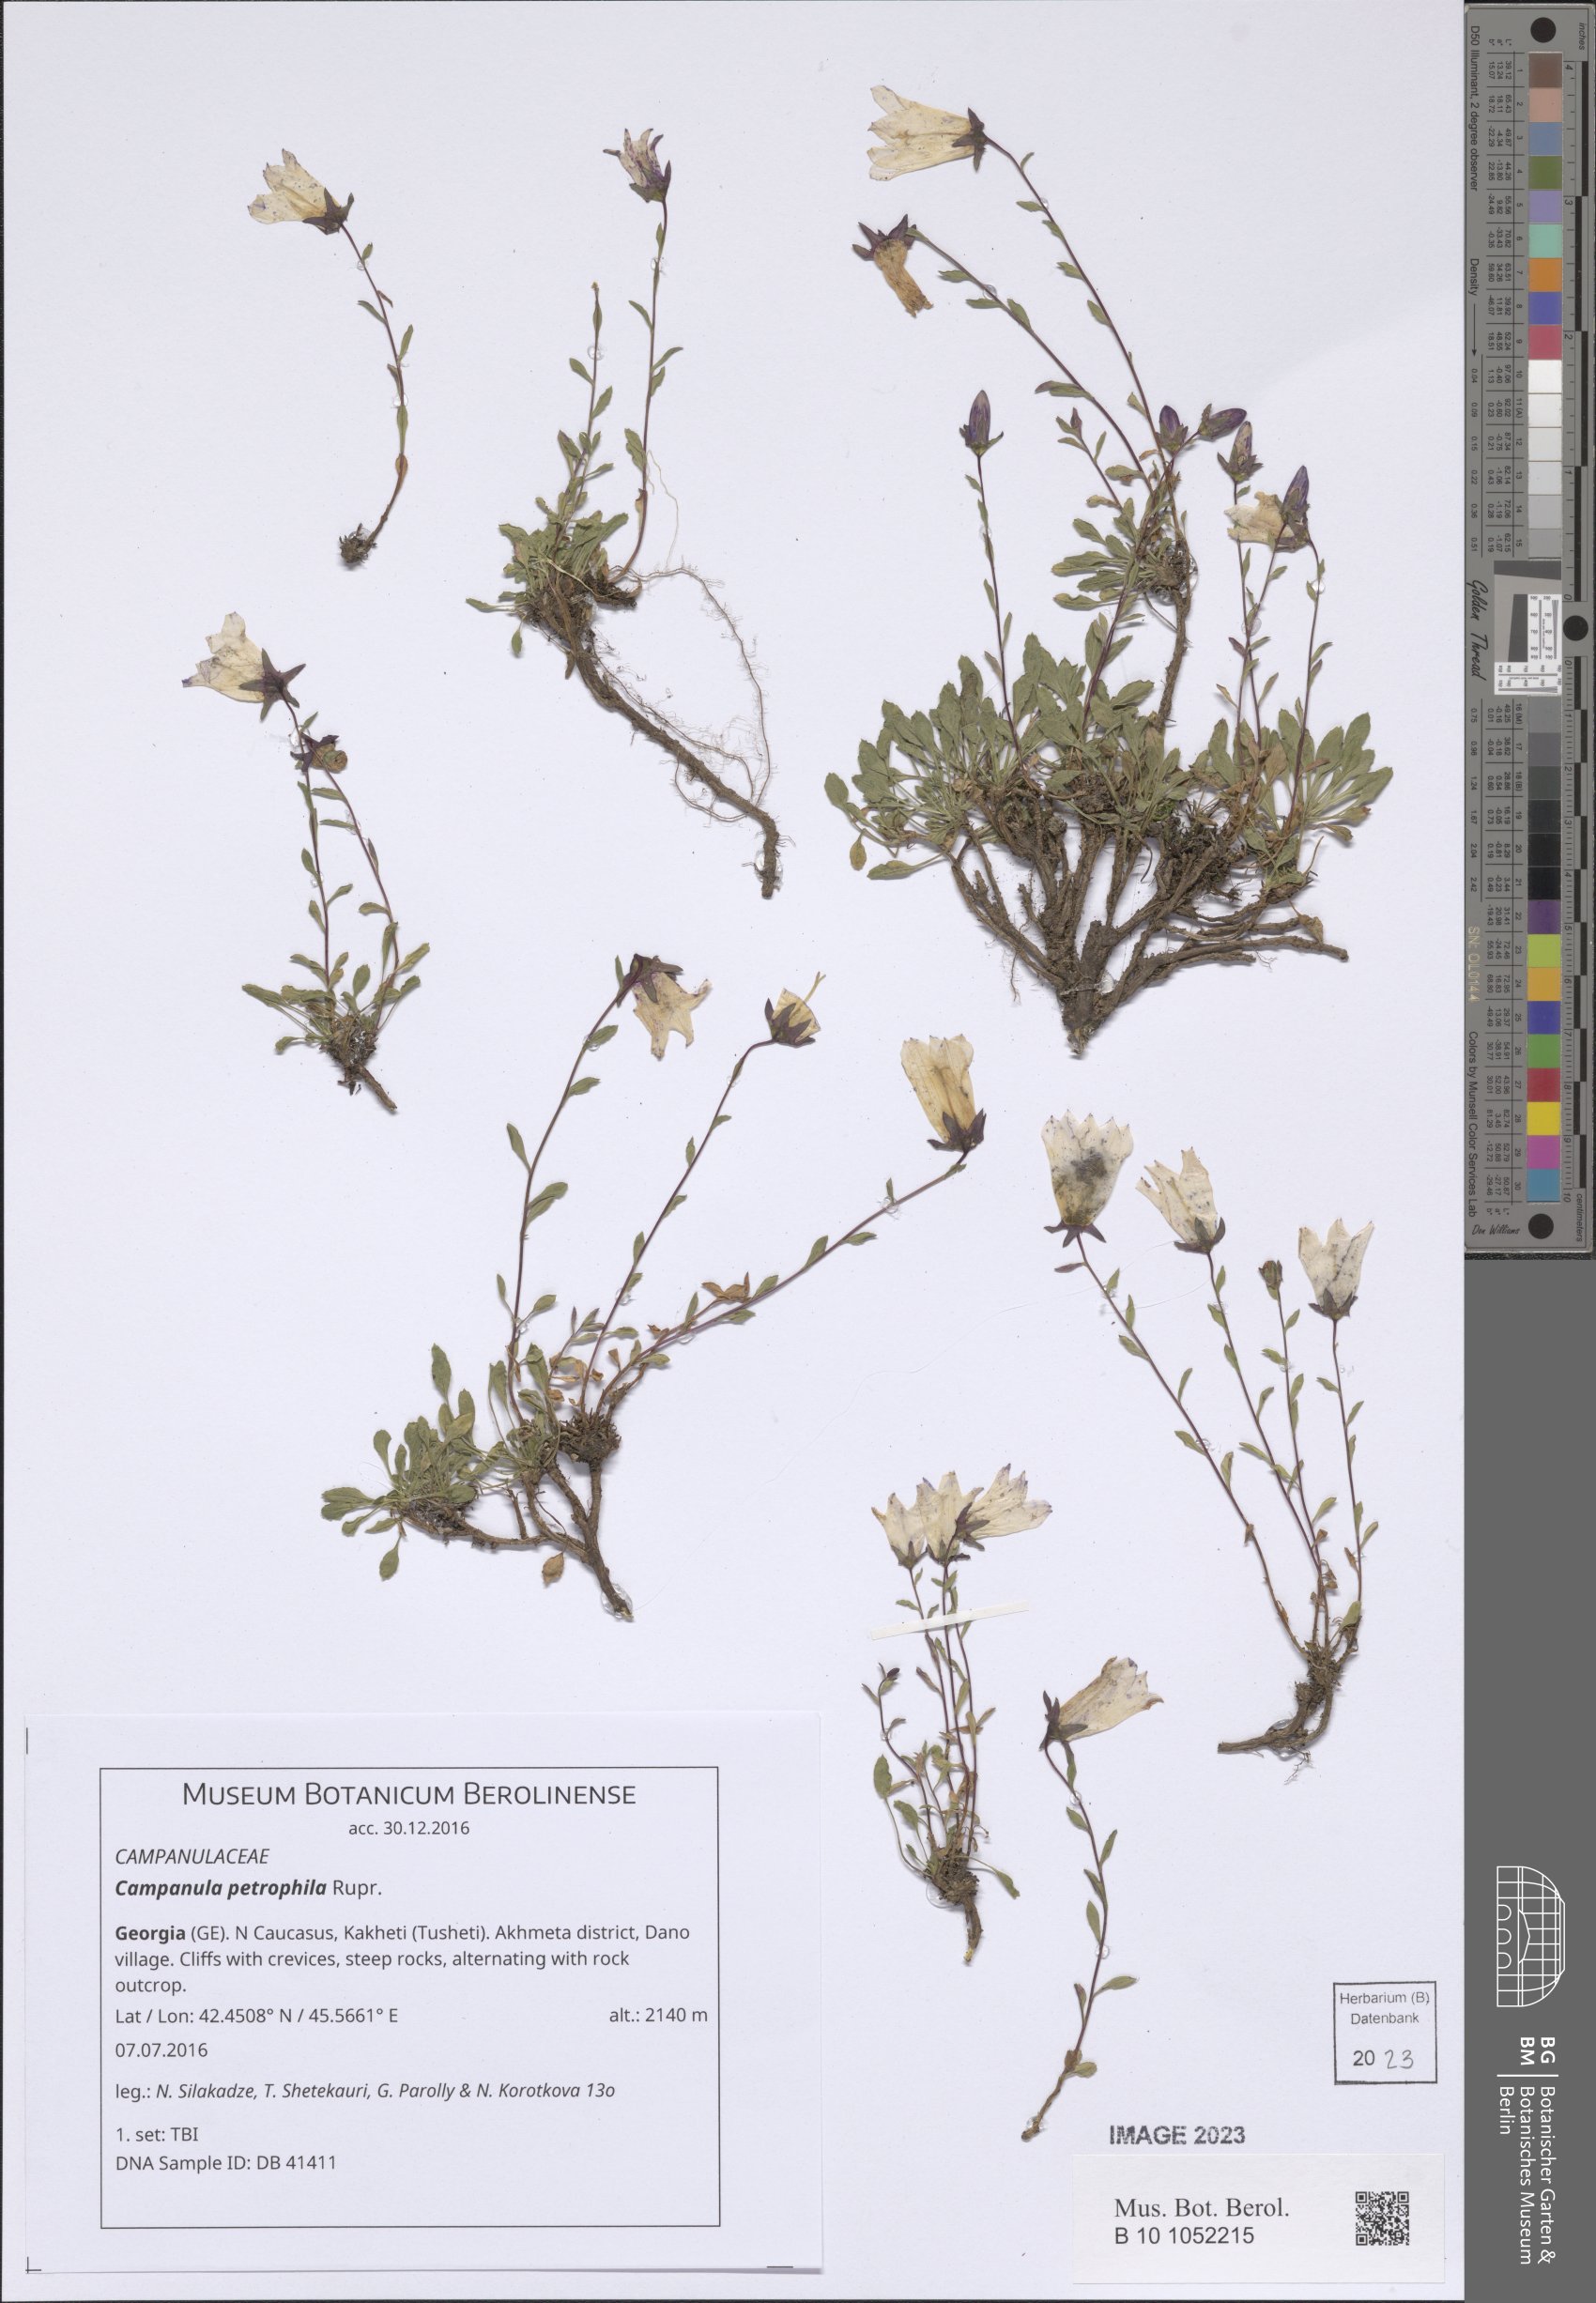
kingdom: Plantae
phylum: Tracheophyta
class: Magnoliopsida
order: Asterales
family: Campanulaceae
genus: Campanula
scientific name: Campanula petrophila
